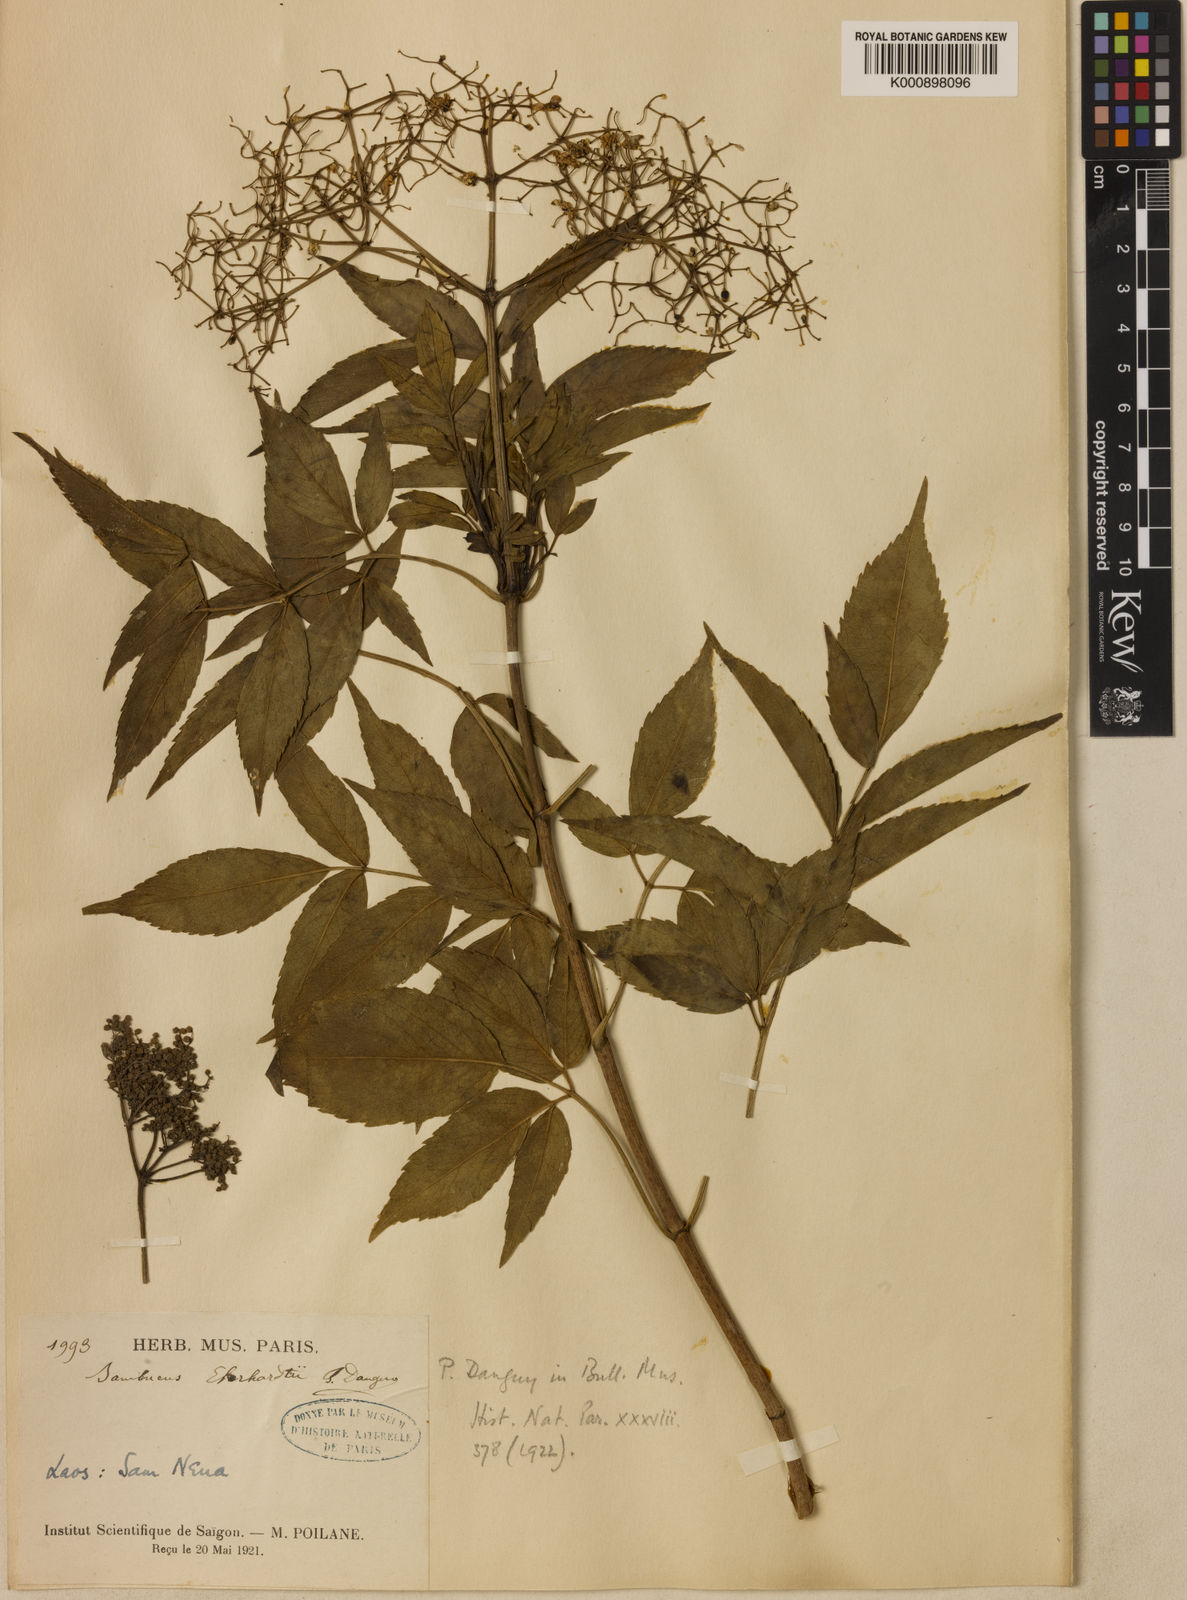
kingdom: Plantae
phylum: Tracheophyta
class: Magnoliopsida
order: Dipsacales
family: Viburnaceae
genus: Sambucus
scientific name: Sambucus canadensis
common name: American elder
